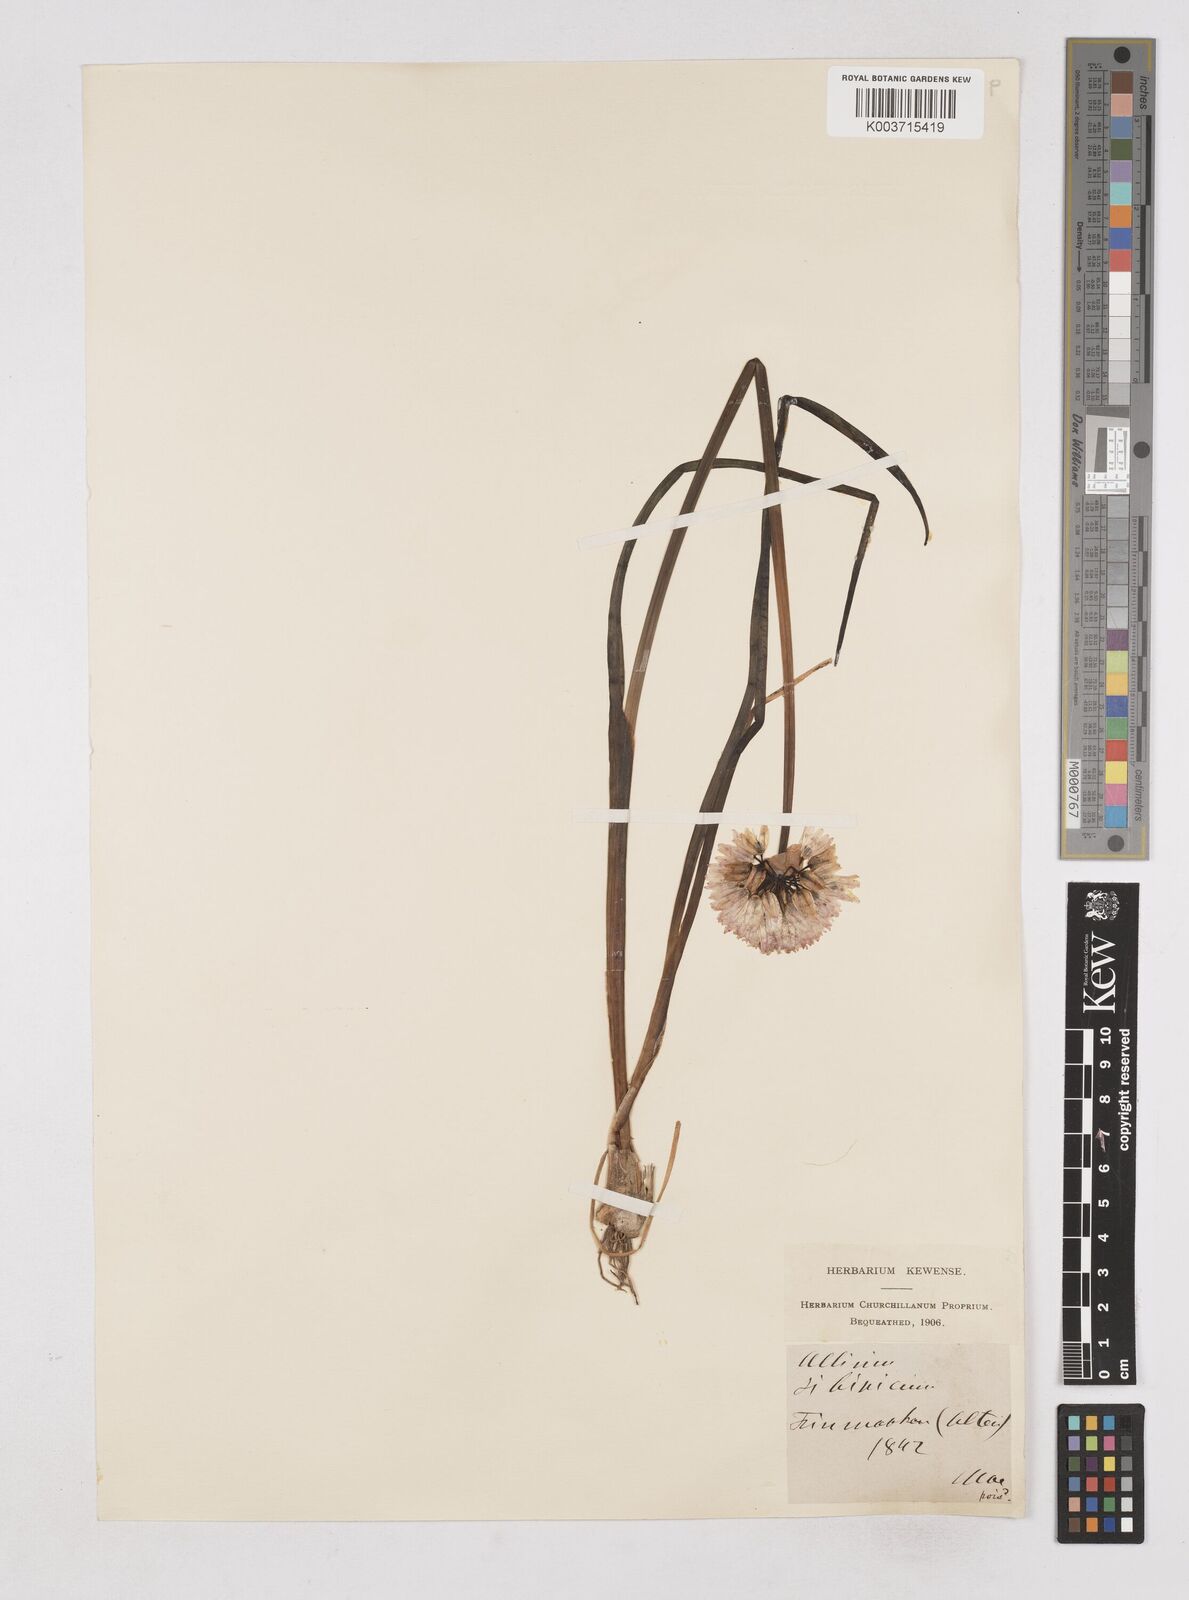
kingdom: Plantae
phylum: Tracheophyta
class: Liliopsida
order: Asparagales
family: Amaryllidaceae
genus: Allium
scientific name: Allium schoenoprasum
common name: Chives
